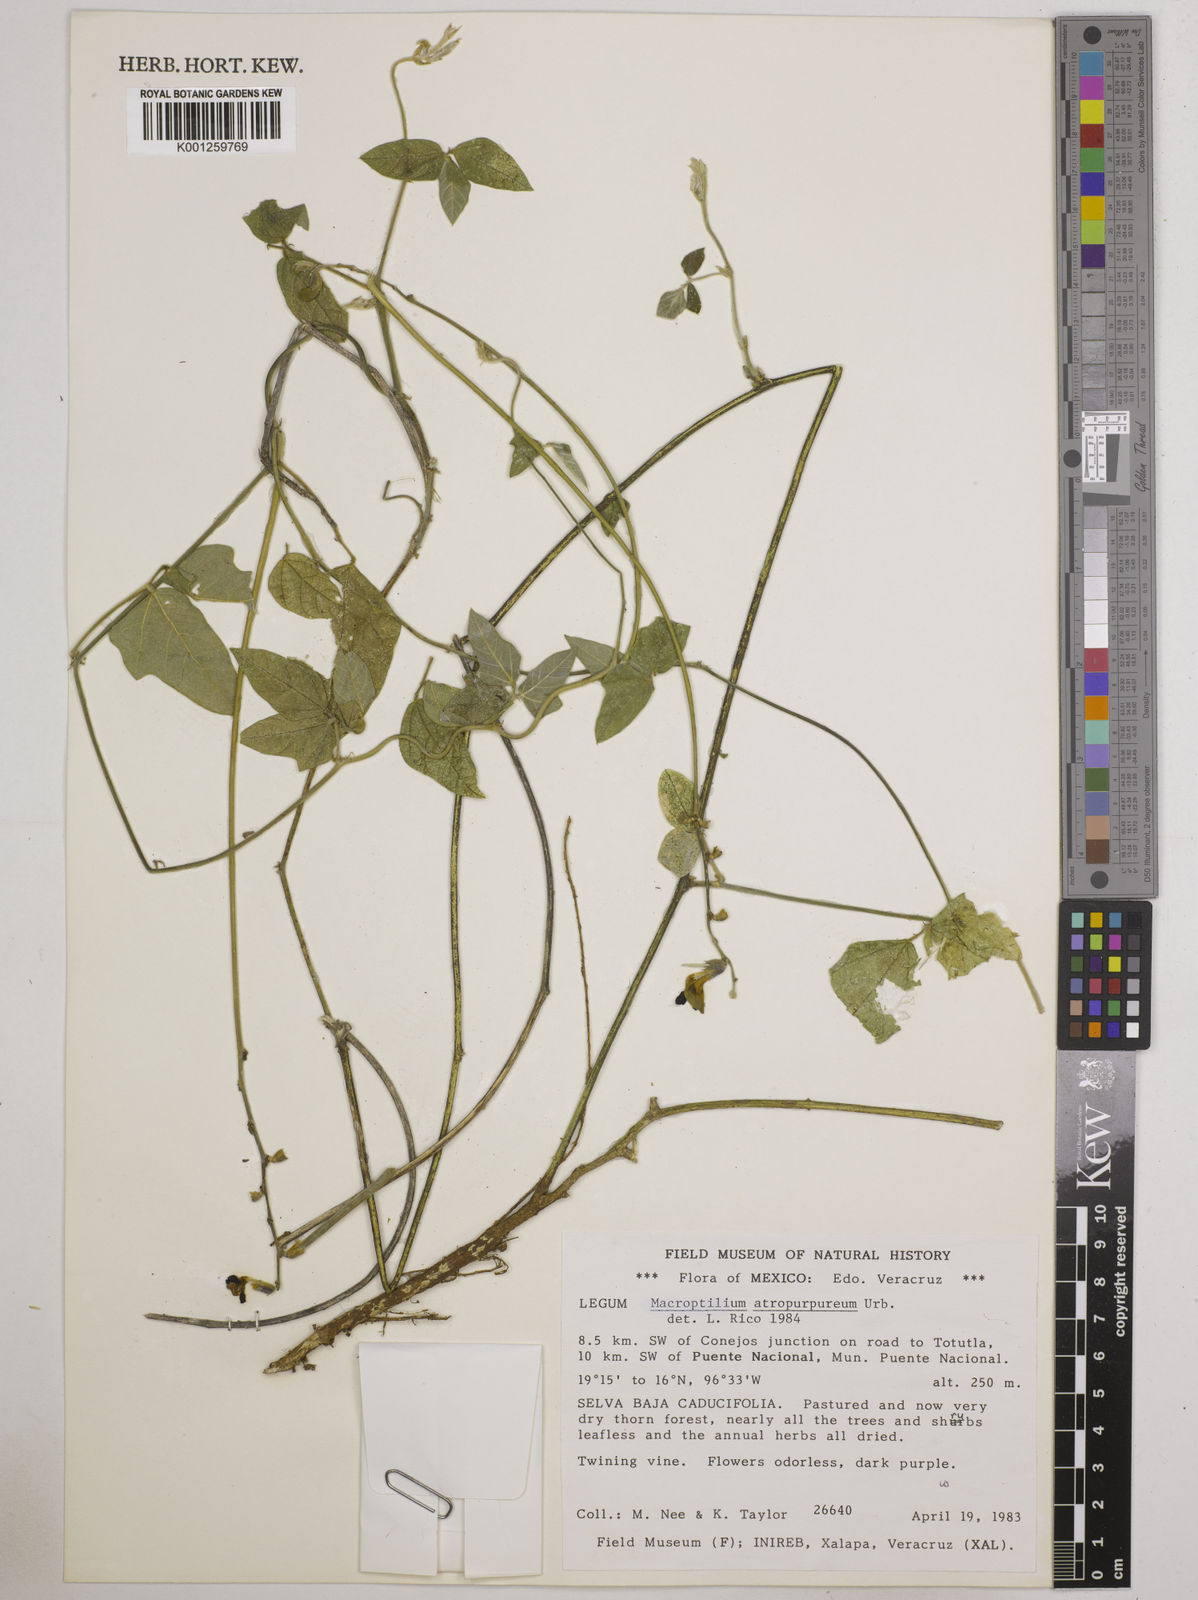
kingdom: Plantae
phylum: Tracheophyta
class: Magnoliopsida
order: Fabales
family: Fabaceae
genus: Macroptilium
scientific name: Macroptilium atropurpureum
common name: Purple bushbean
